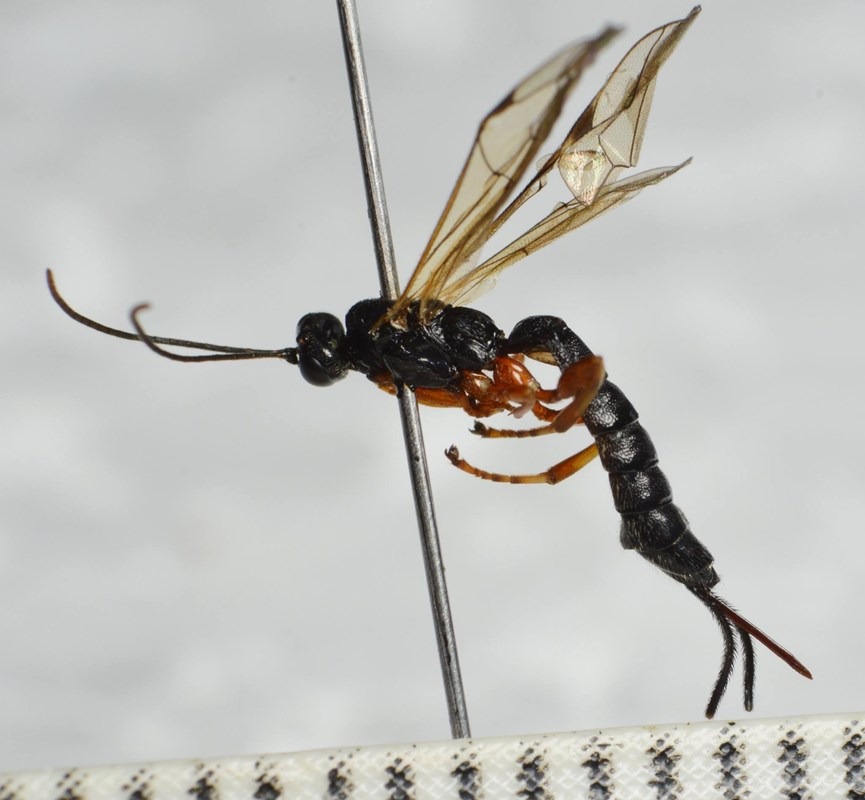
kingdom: Animalia
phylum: Arthropoda
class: Insecta
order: Hymenoptera
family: Ichneumonidae
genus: Endromopoda
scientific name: Endromopoda detrita
